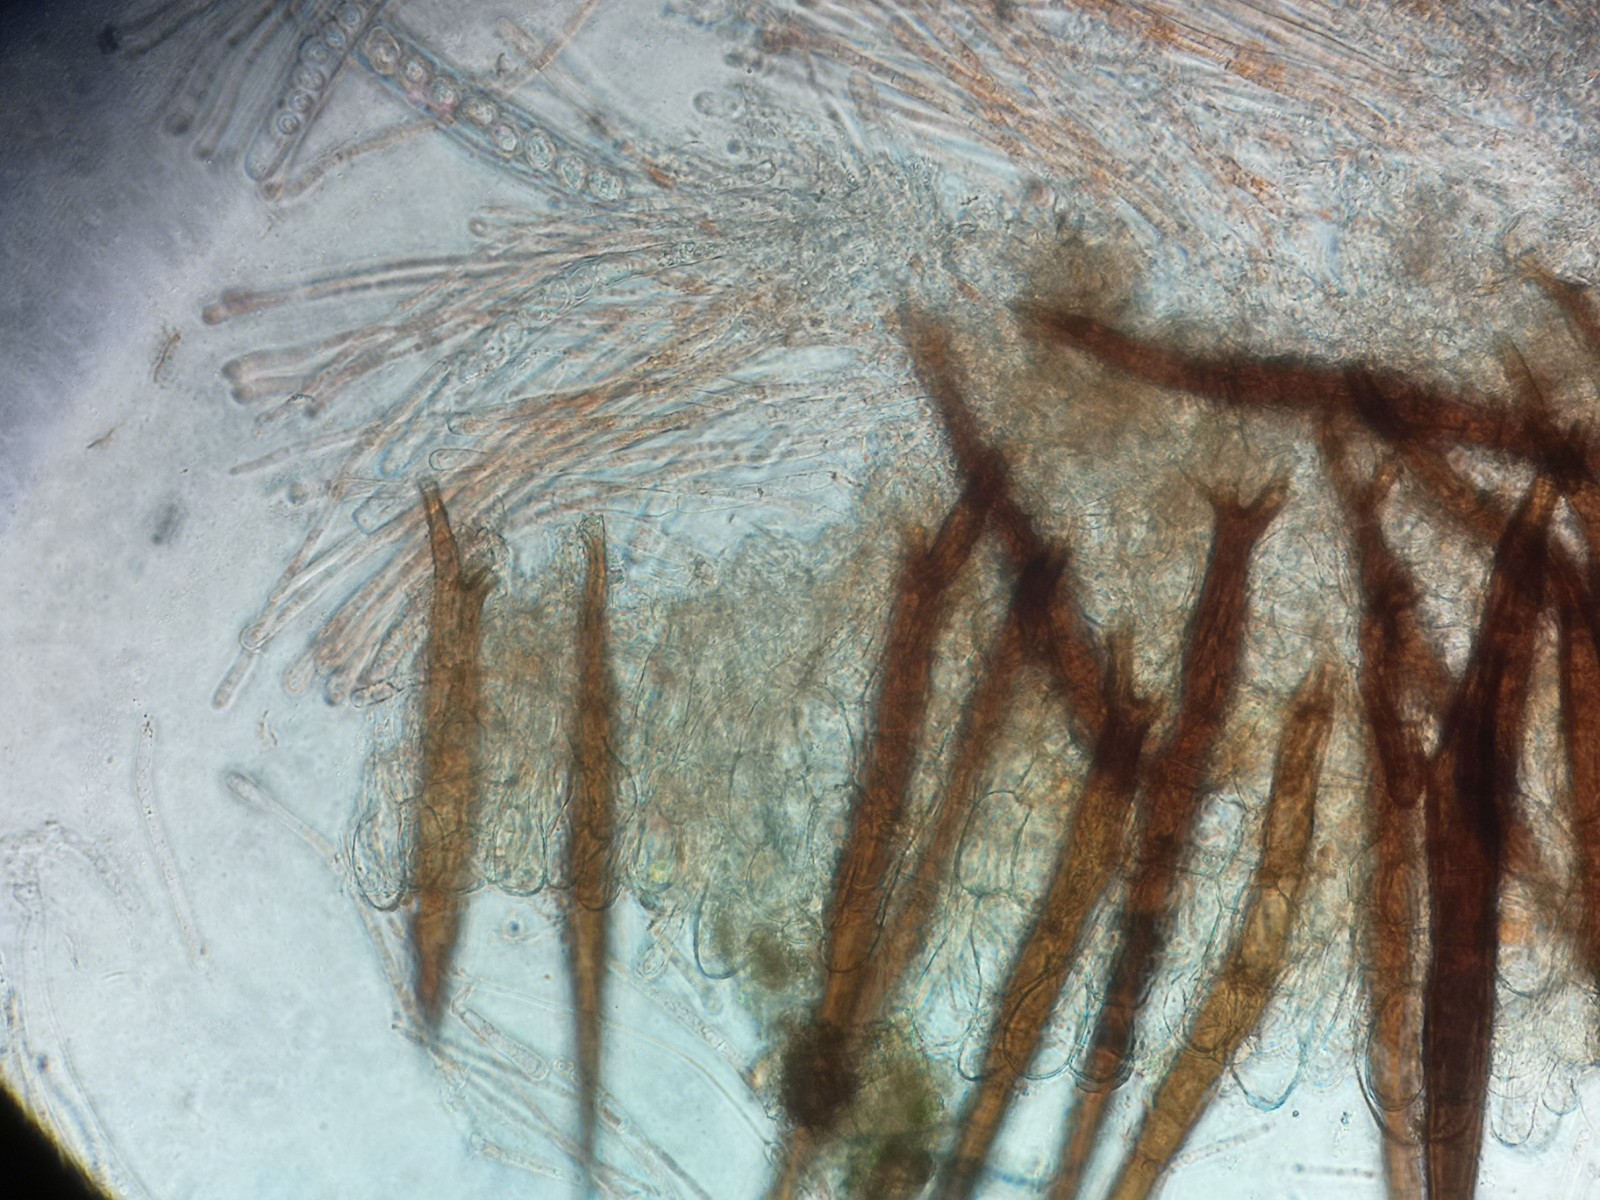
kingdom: Fungi
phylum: Ascomycota
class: Pezizomycetes
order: Pezizales
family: Pyronemataceae
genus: Scutellinia
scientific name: Scutellinia
